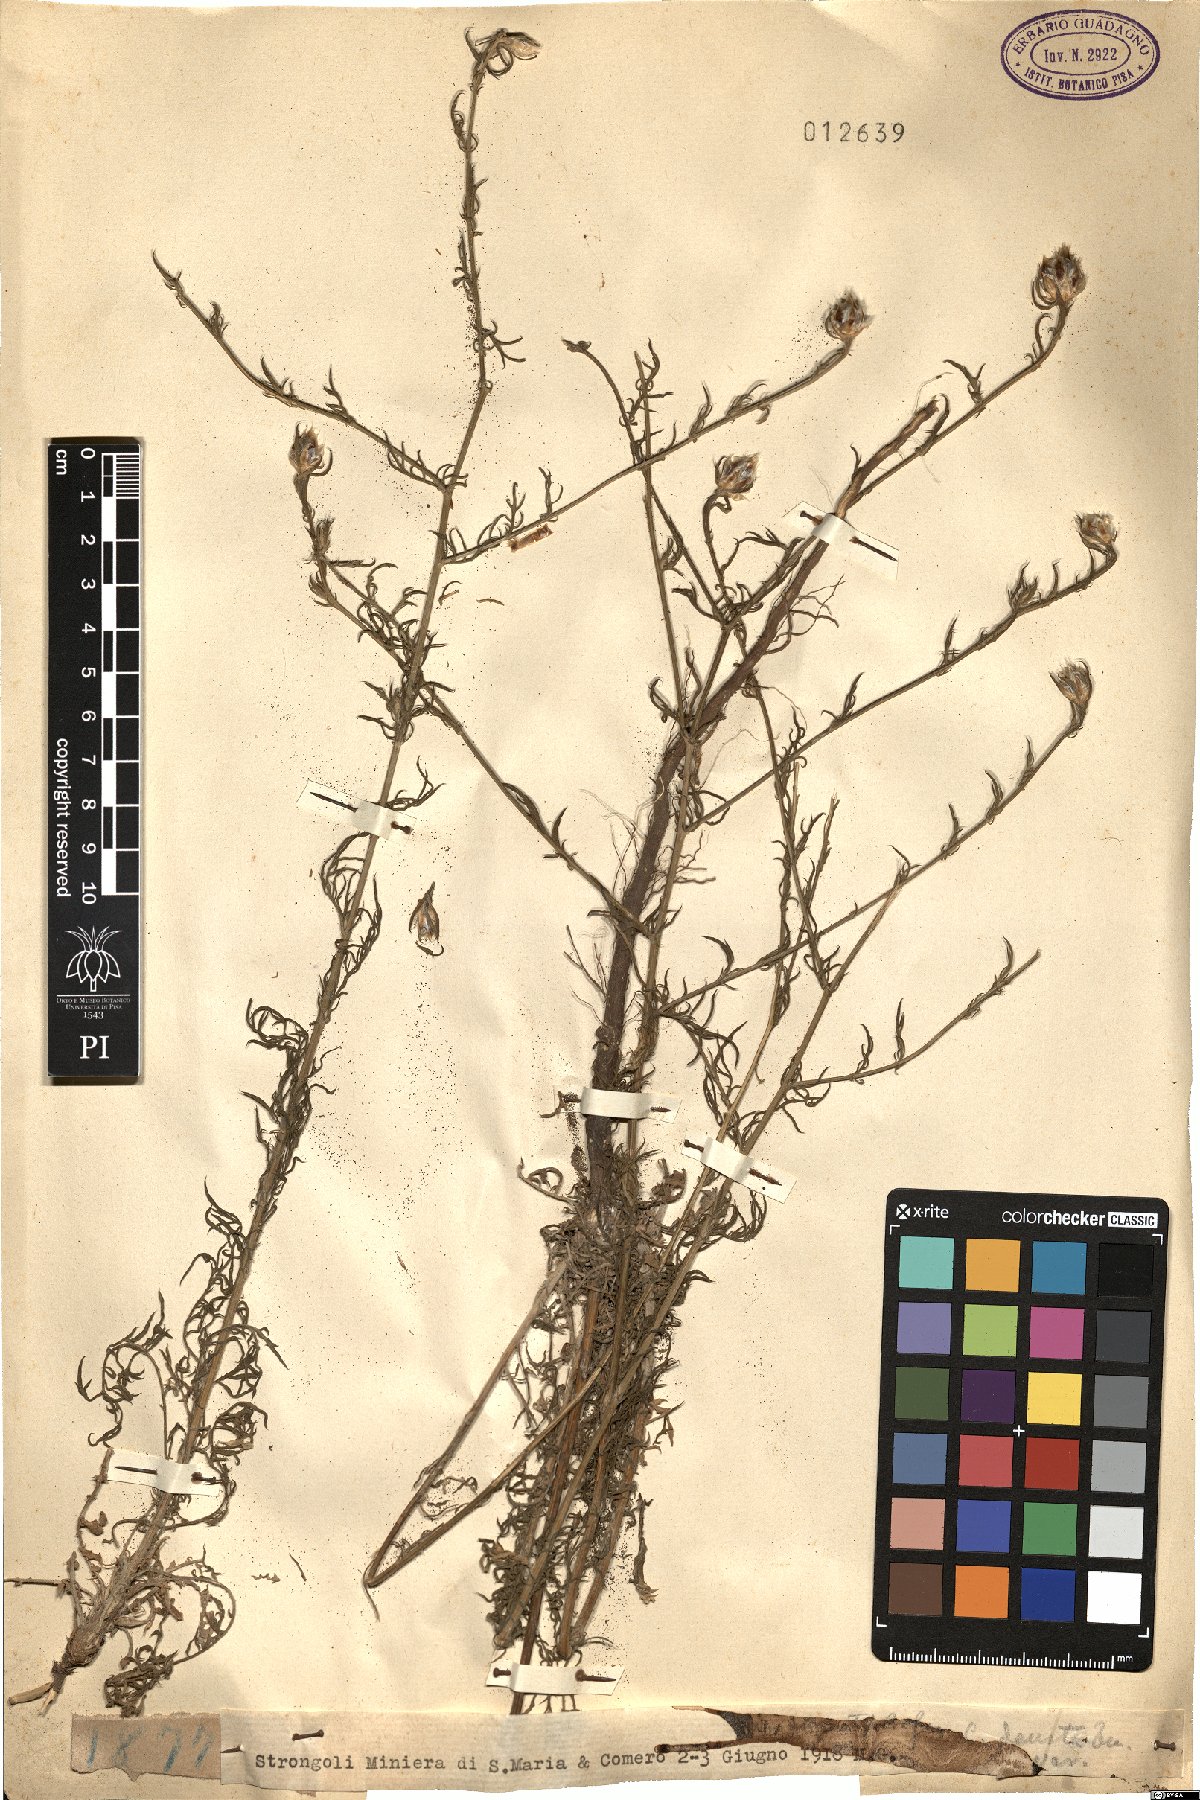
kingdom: Plantae
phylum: Tracheophyta
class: Magnoliopsida
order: Asterales
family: Asteraceae
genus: Centaurea
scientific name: Centaurea deusta
